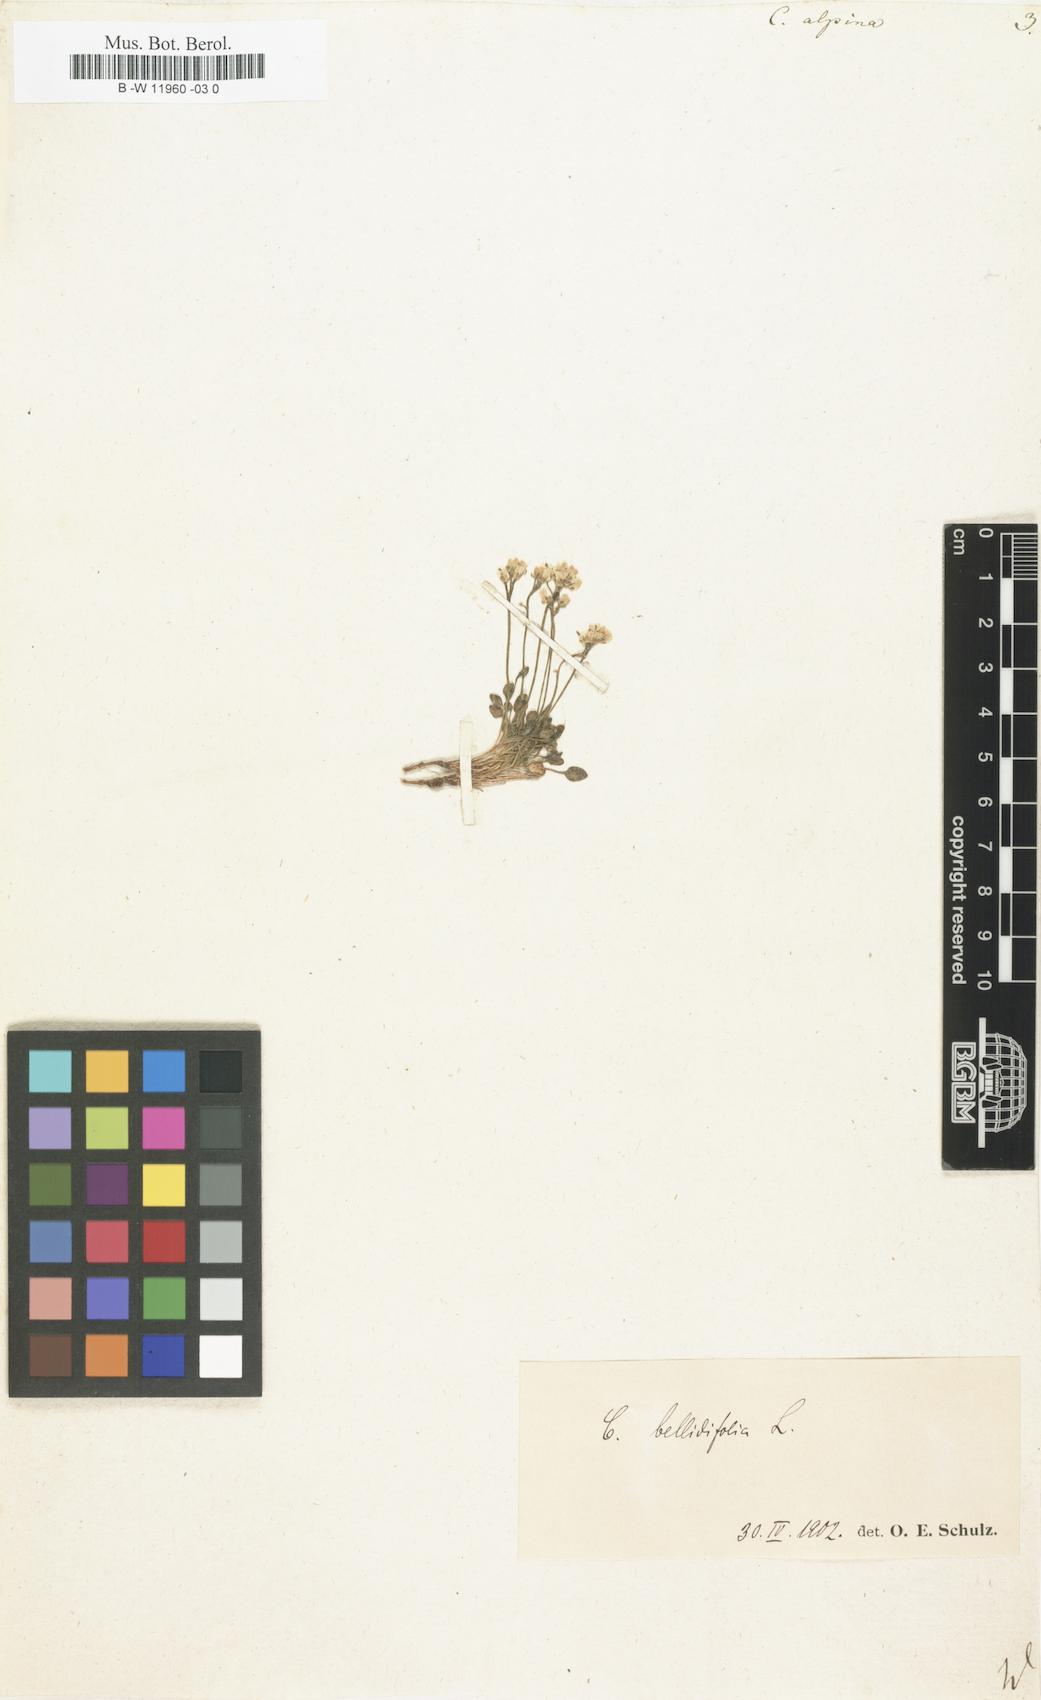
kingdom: Plantae
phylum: Tracheophyta
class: Magnoliopsida
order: Brassicales
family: Brassicaceae
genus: Cardamine
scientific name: Cardamine bellidifolia
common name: Alpine bittercress
